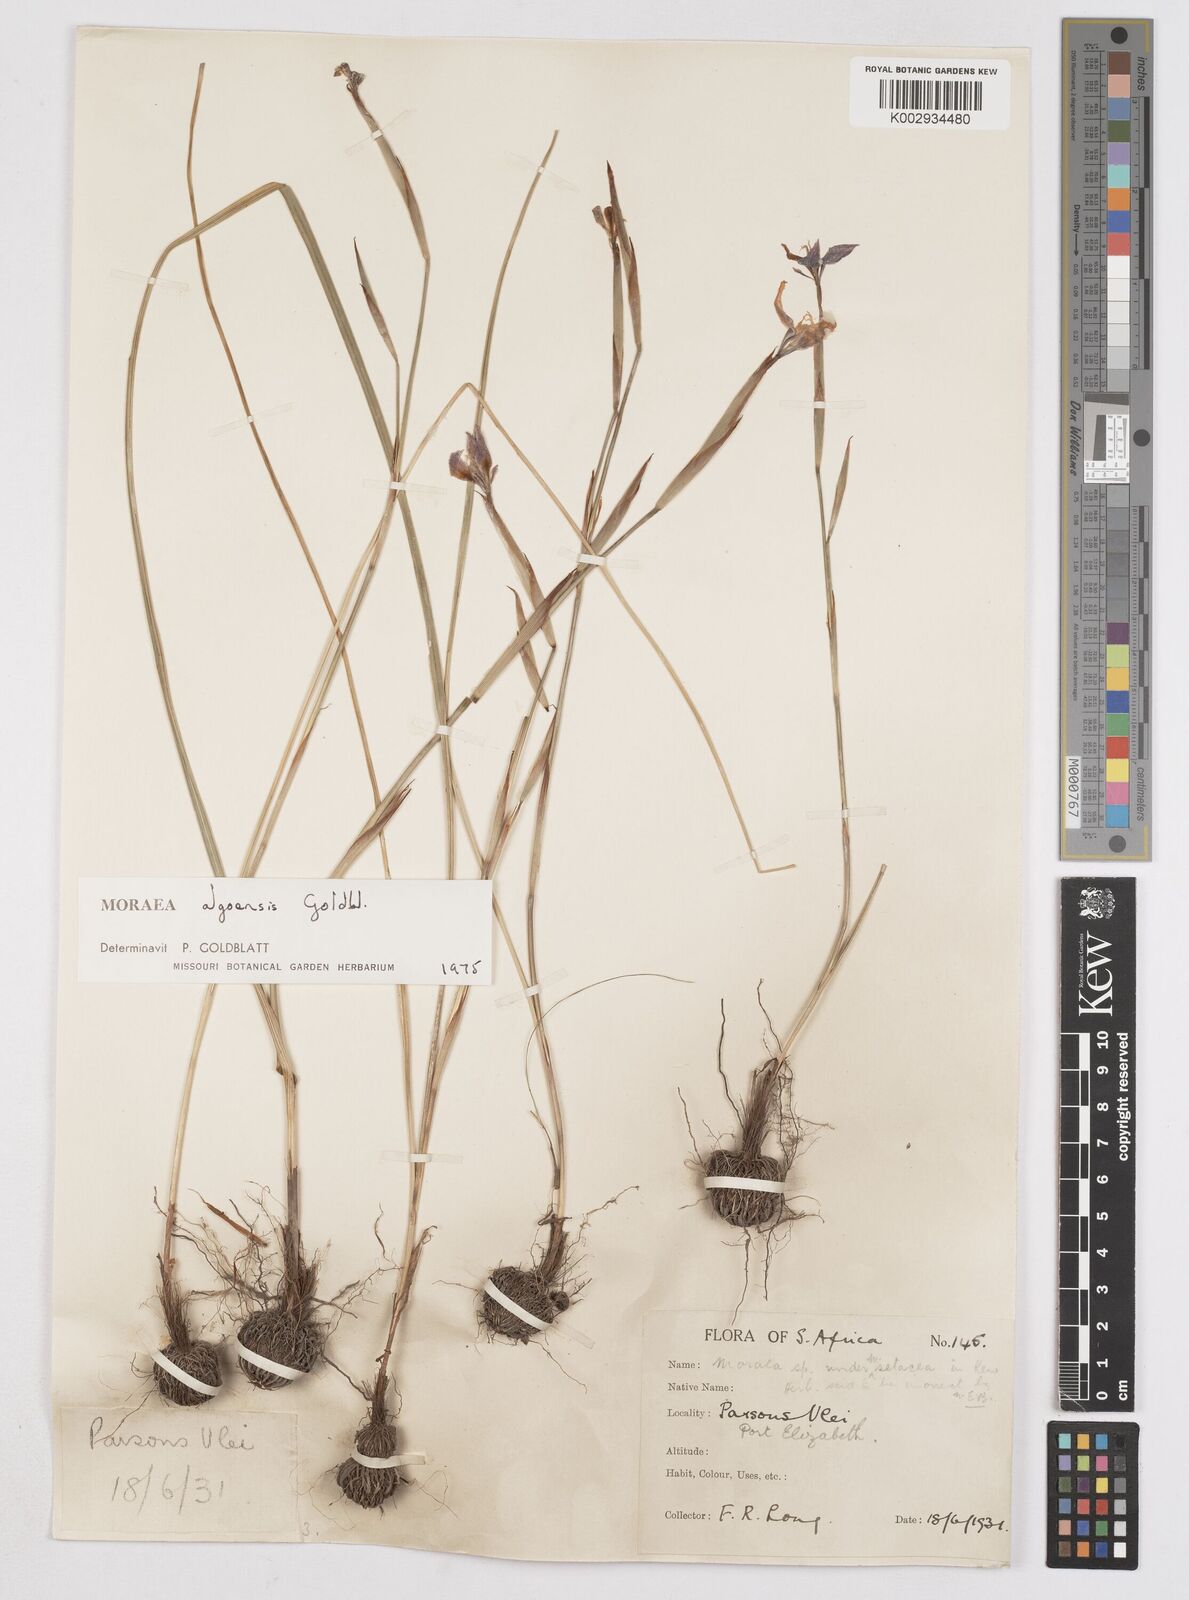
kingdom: Plantae
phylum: Tracheophyta
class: Liliopsida
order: Asparagales
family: Iridaceae
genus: Moraea
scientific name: Moraea algoensis
